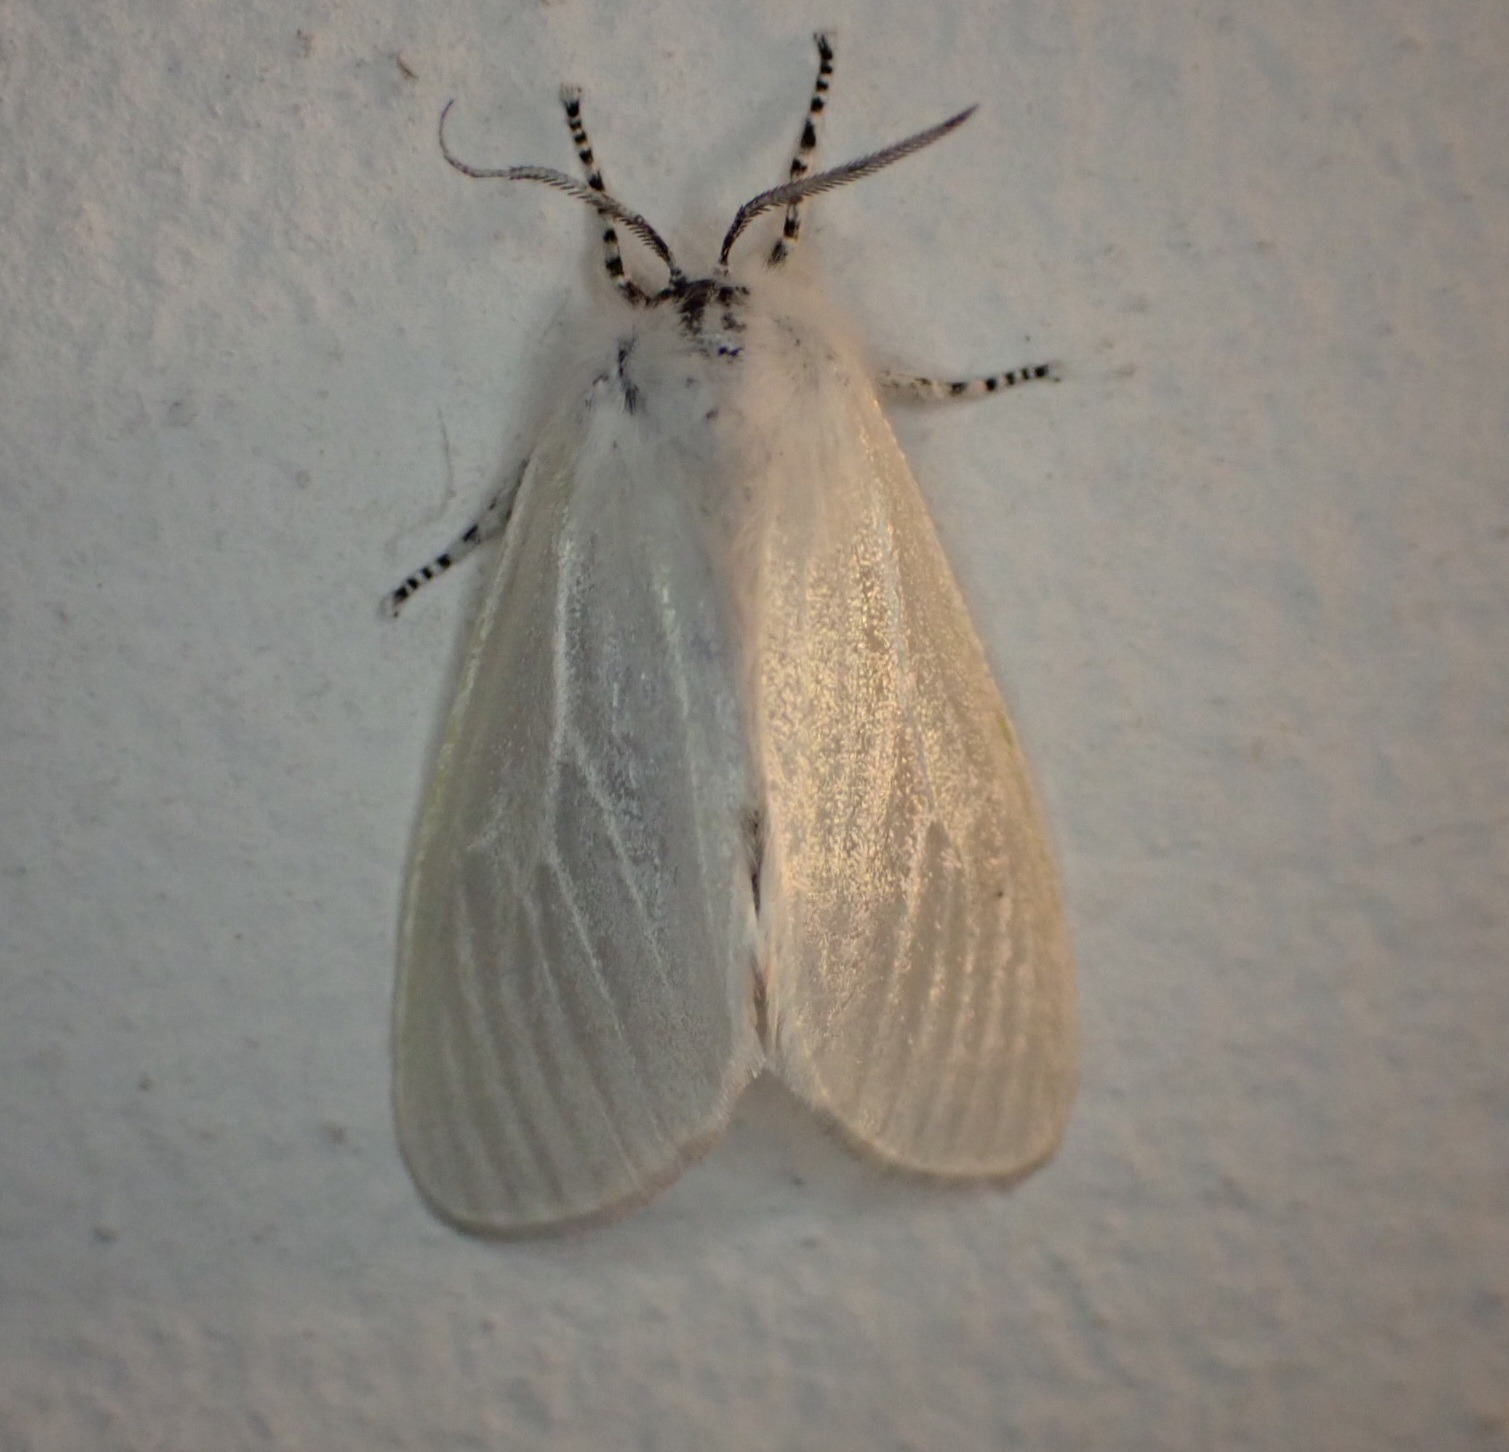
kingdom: Animalia
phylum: Arthropoda
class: Insecta
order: Lepidoptera
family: Erebidae
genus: Leucoma
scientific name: Leucoma salicis
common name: Atlaskspinder
